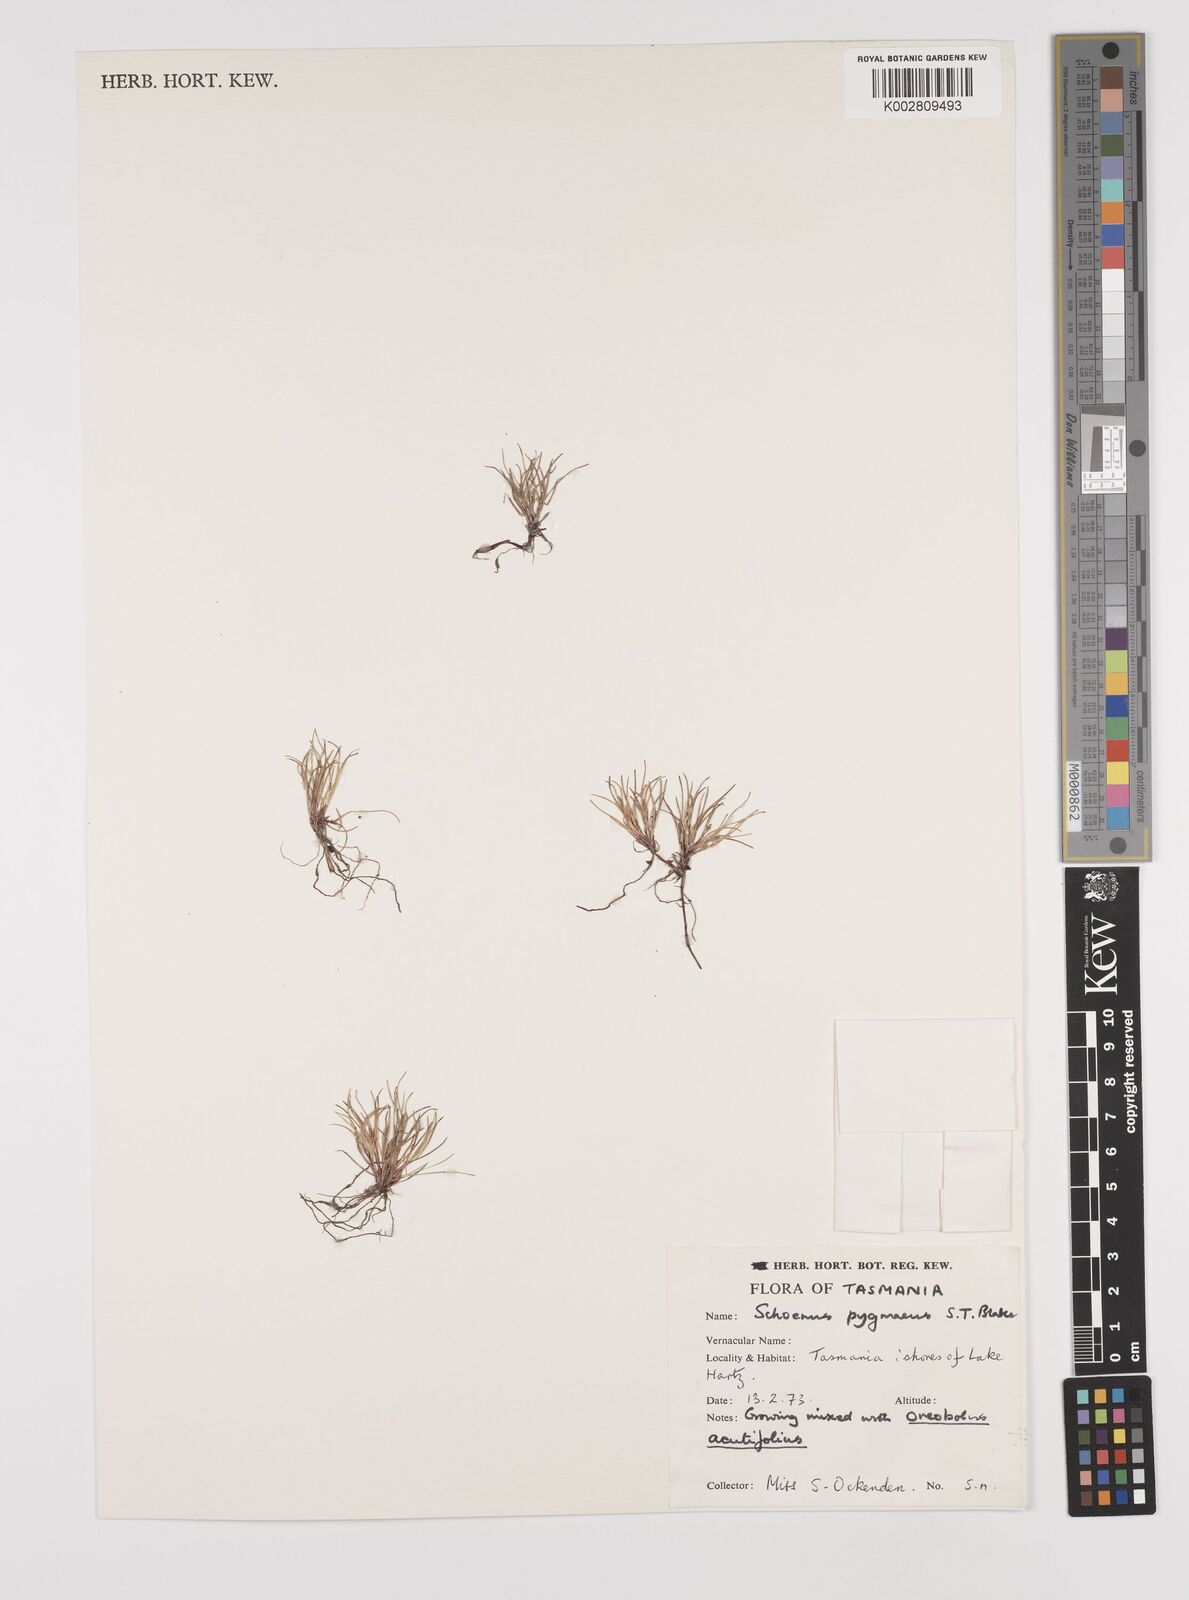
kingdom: Plantae
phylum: Tracheophyta
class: Liliopsida
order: Poales
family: Cyperaceae
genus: Schoenus
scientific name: Schoenus pygmaeus
